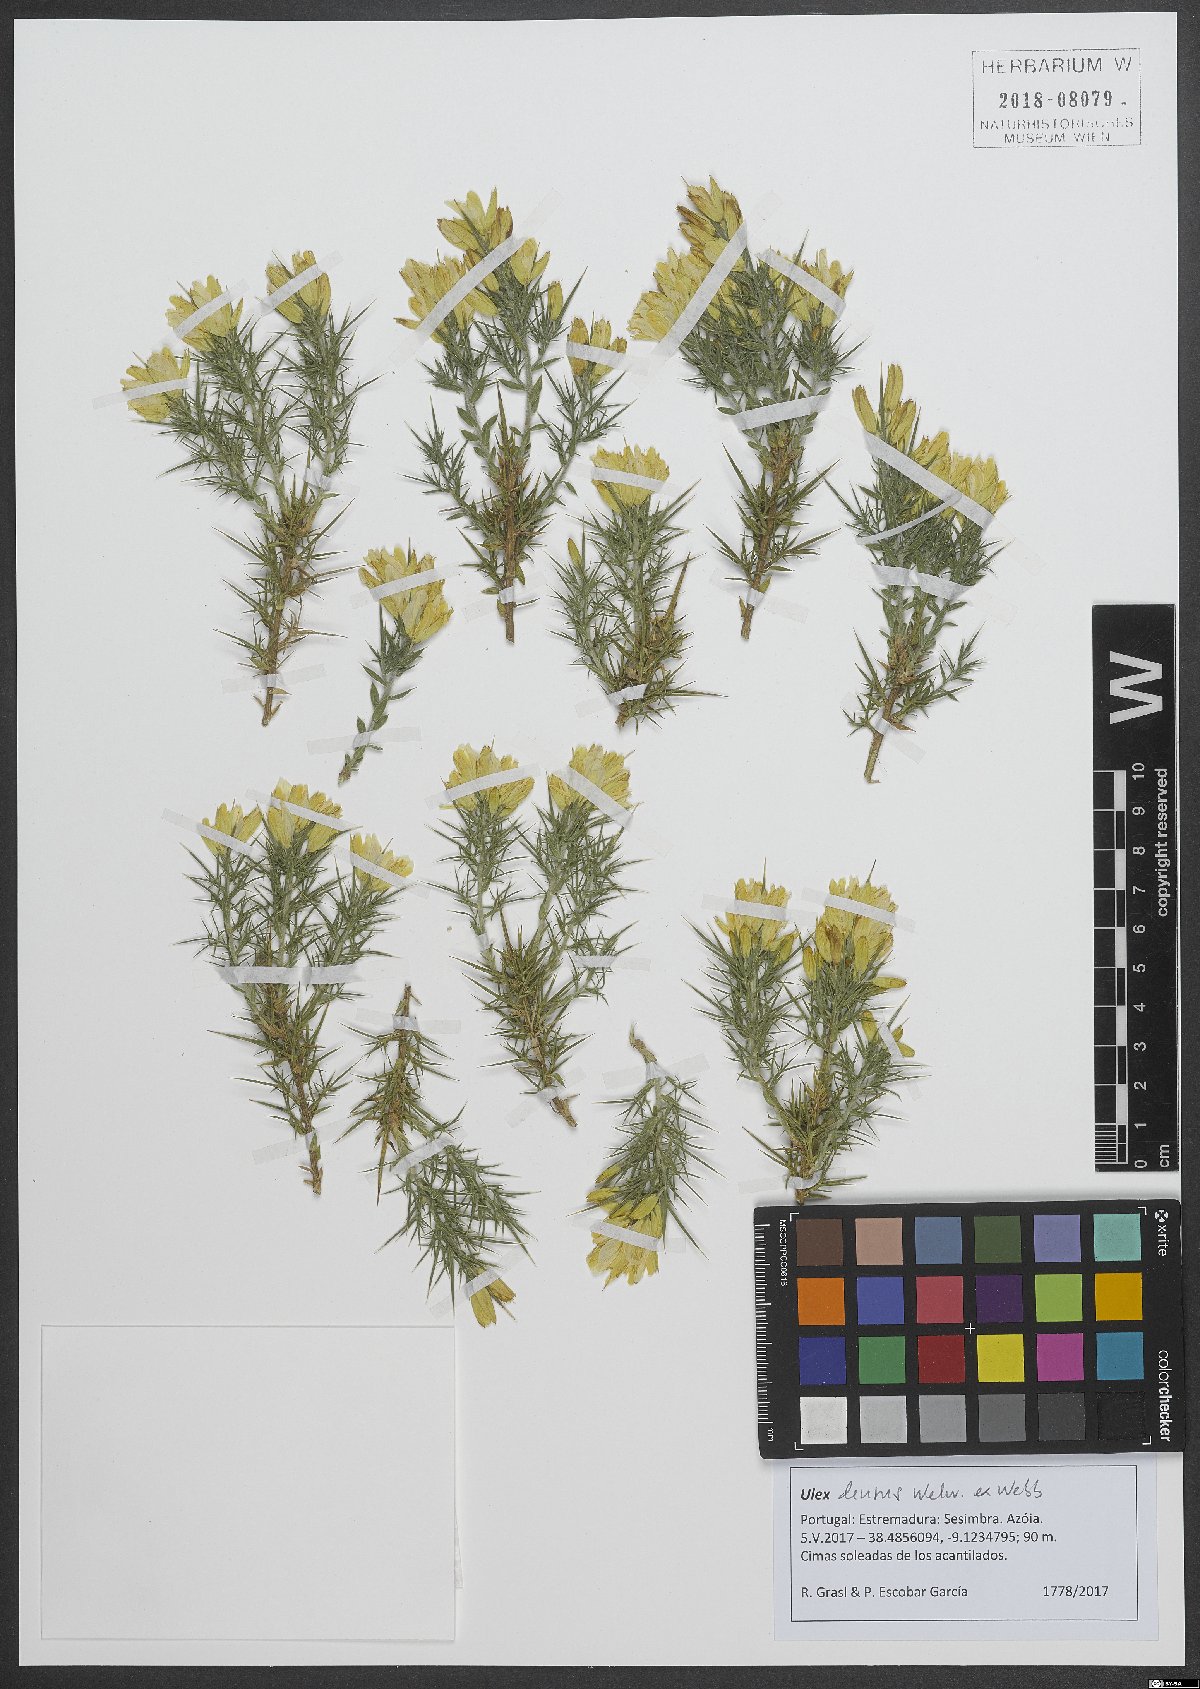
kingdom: Plantae
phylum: Tracheophyta
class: Magnoliopsida
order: Fabales
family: Fabaceae
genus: Ulex
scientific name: Ulex densus
